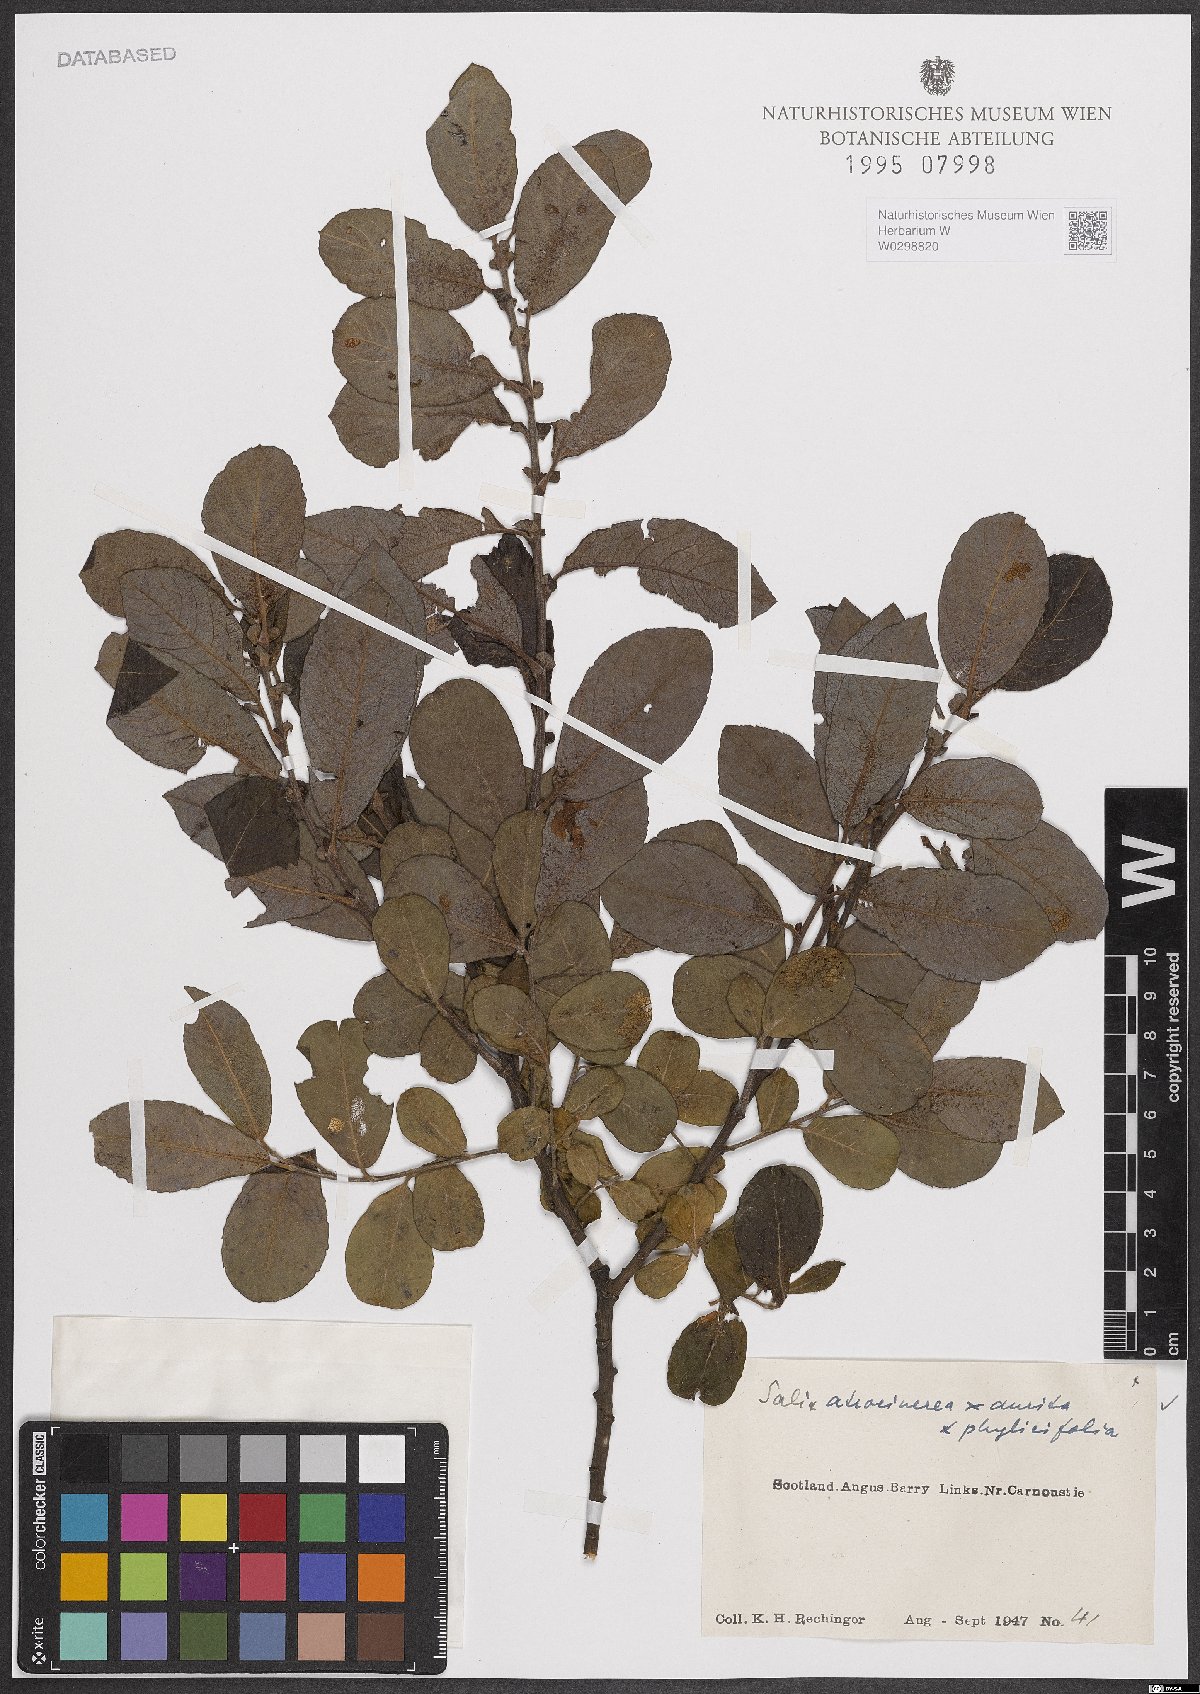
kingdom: Plantae
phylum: Tracheophyta
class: Magnoliopsida
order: Malpighiales
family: Salicaceae
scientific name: Salicaceae
